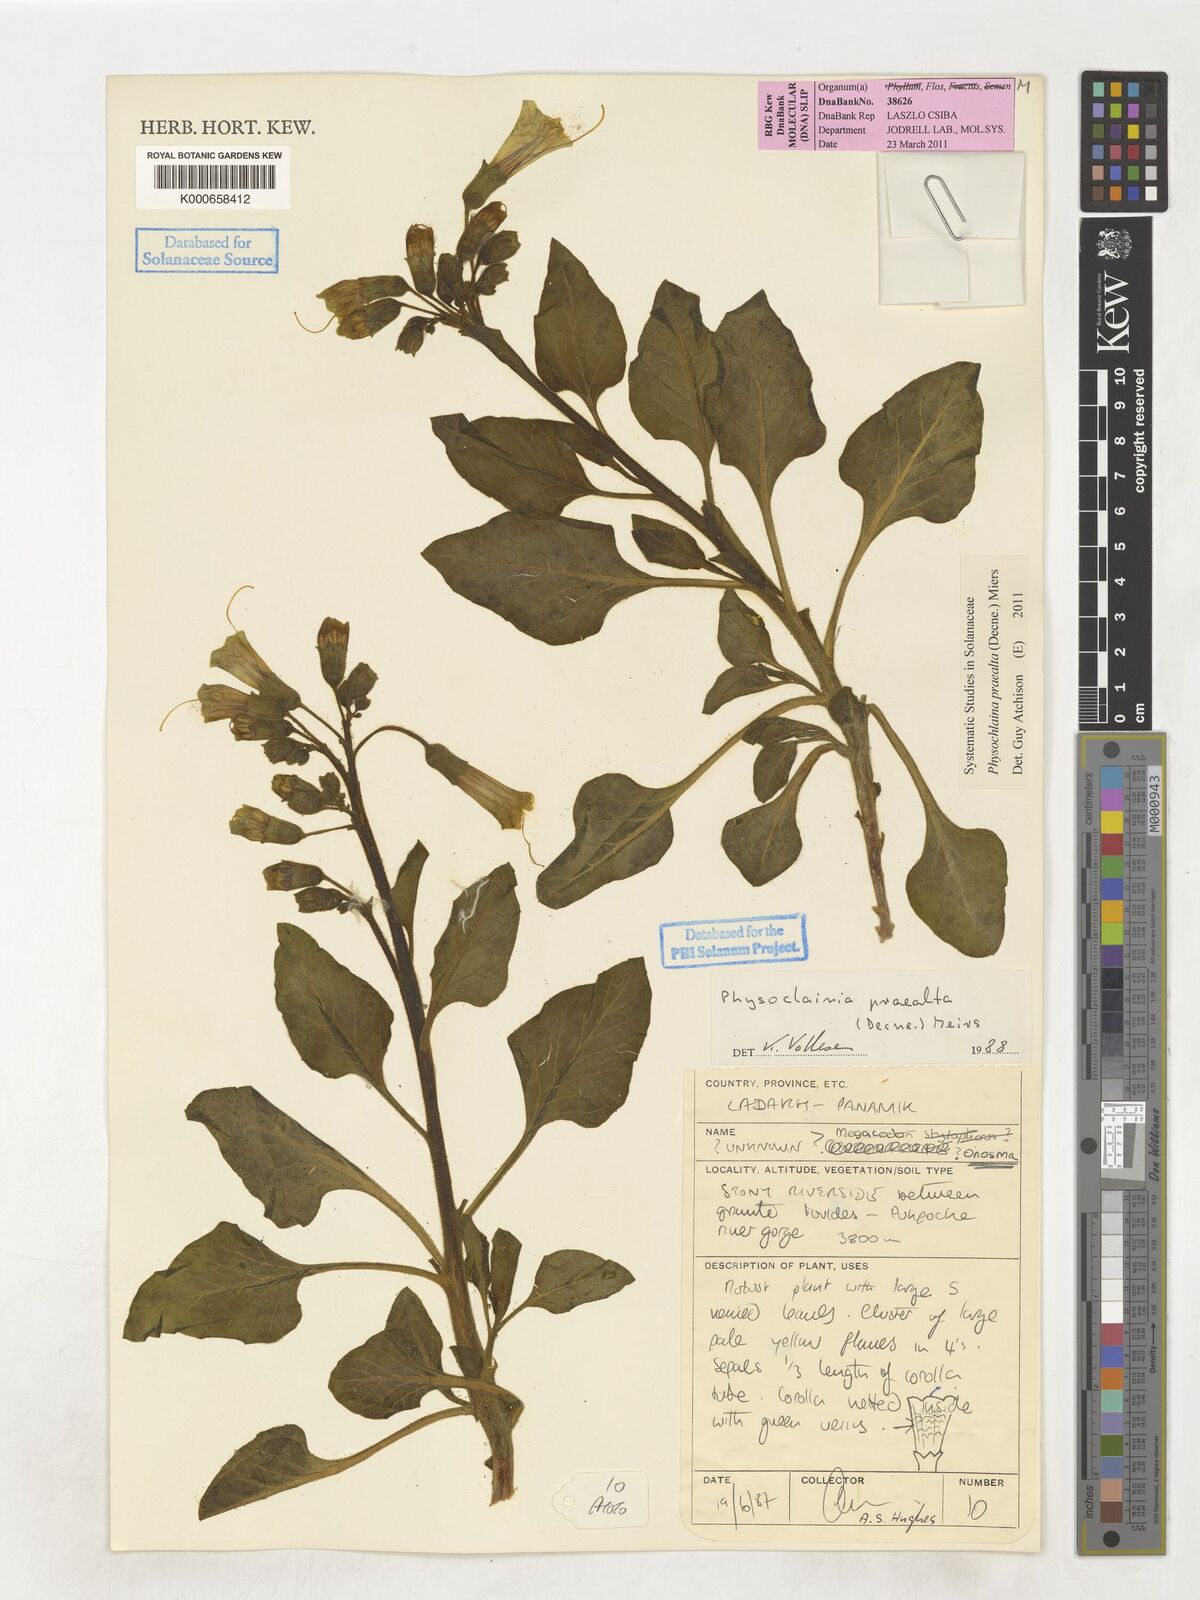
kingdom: Plantae
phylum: Tracheophyta
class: Magnoliopsida
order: Solanales
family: Solanaceae
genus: Physochlaina
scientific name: Physochlaina praealta
